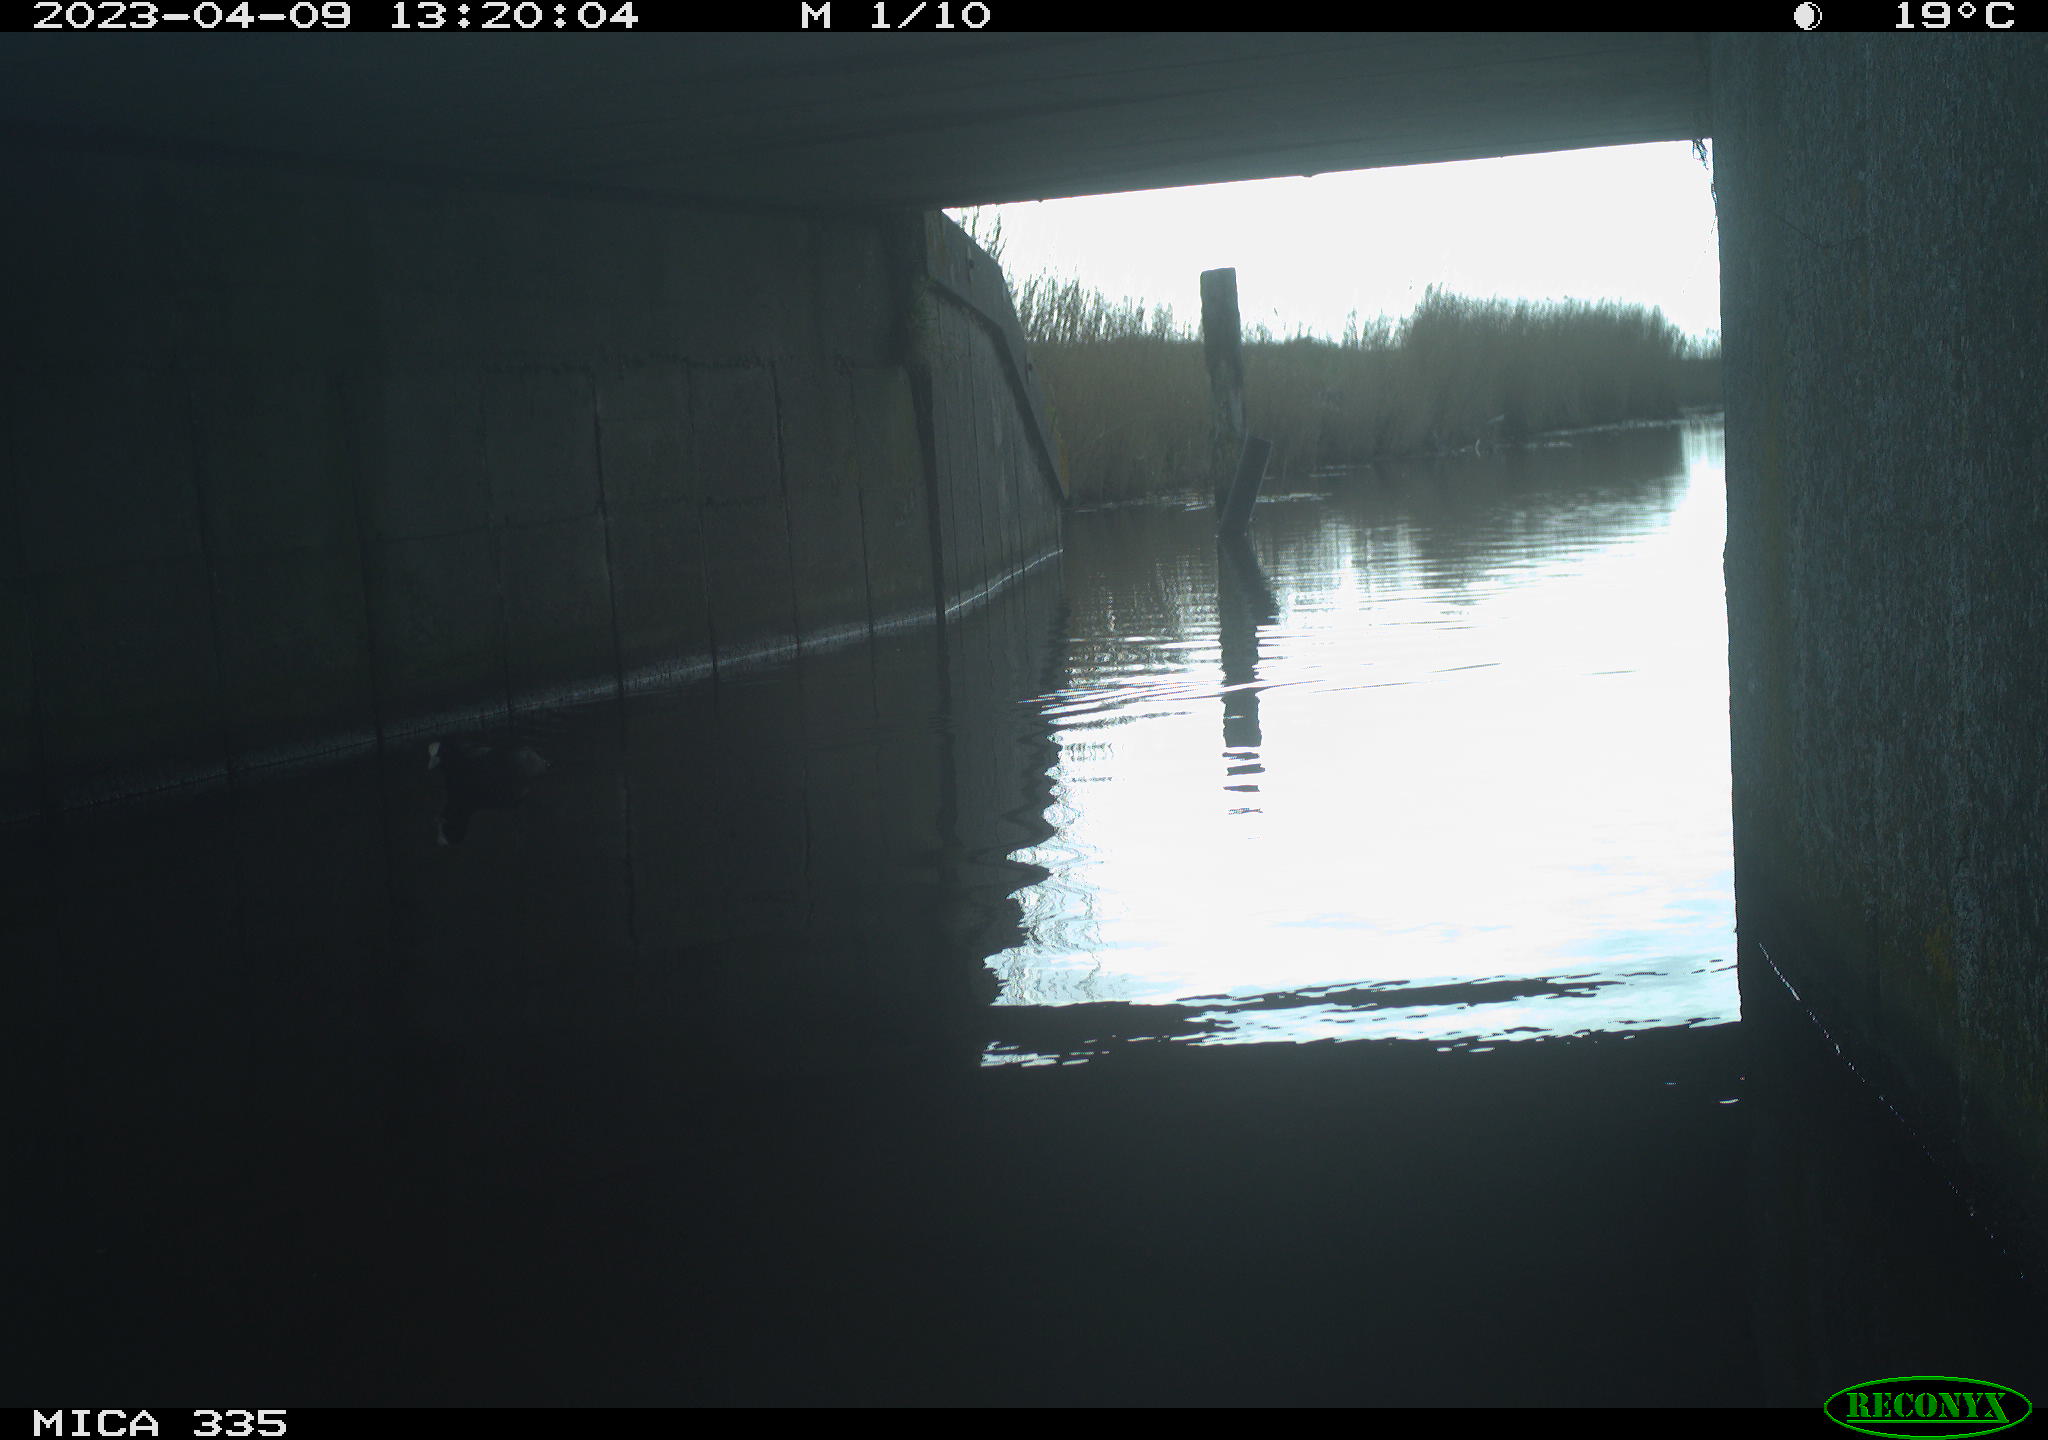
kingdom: Animalia
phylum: Chordata
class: Aves
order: Gruiformes
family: Rallidae
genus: Fulica
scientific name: Fulica atra
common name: Eurasian coot
